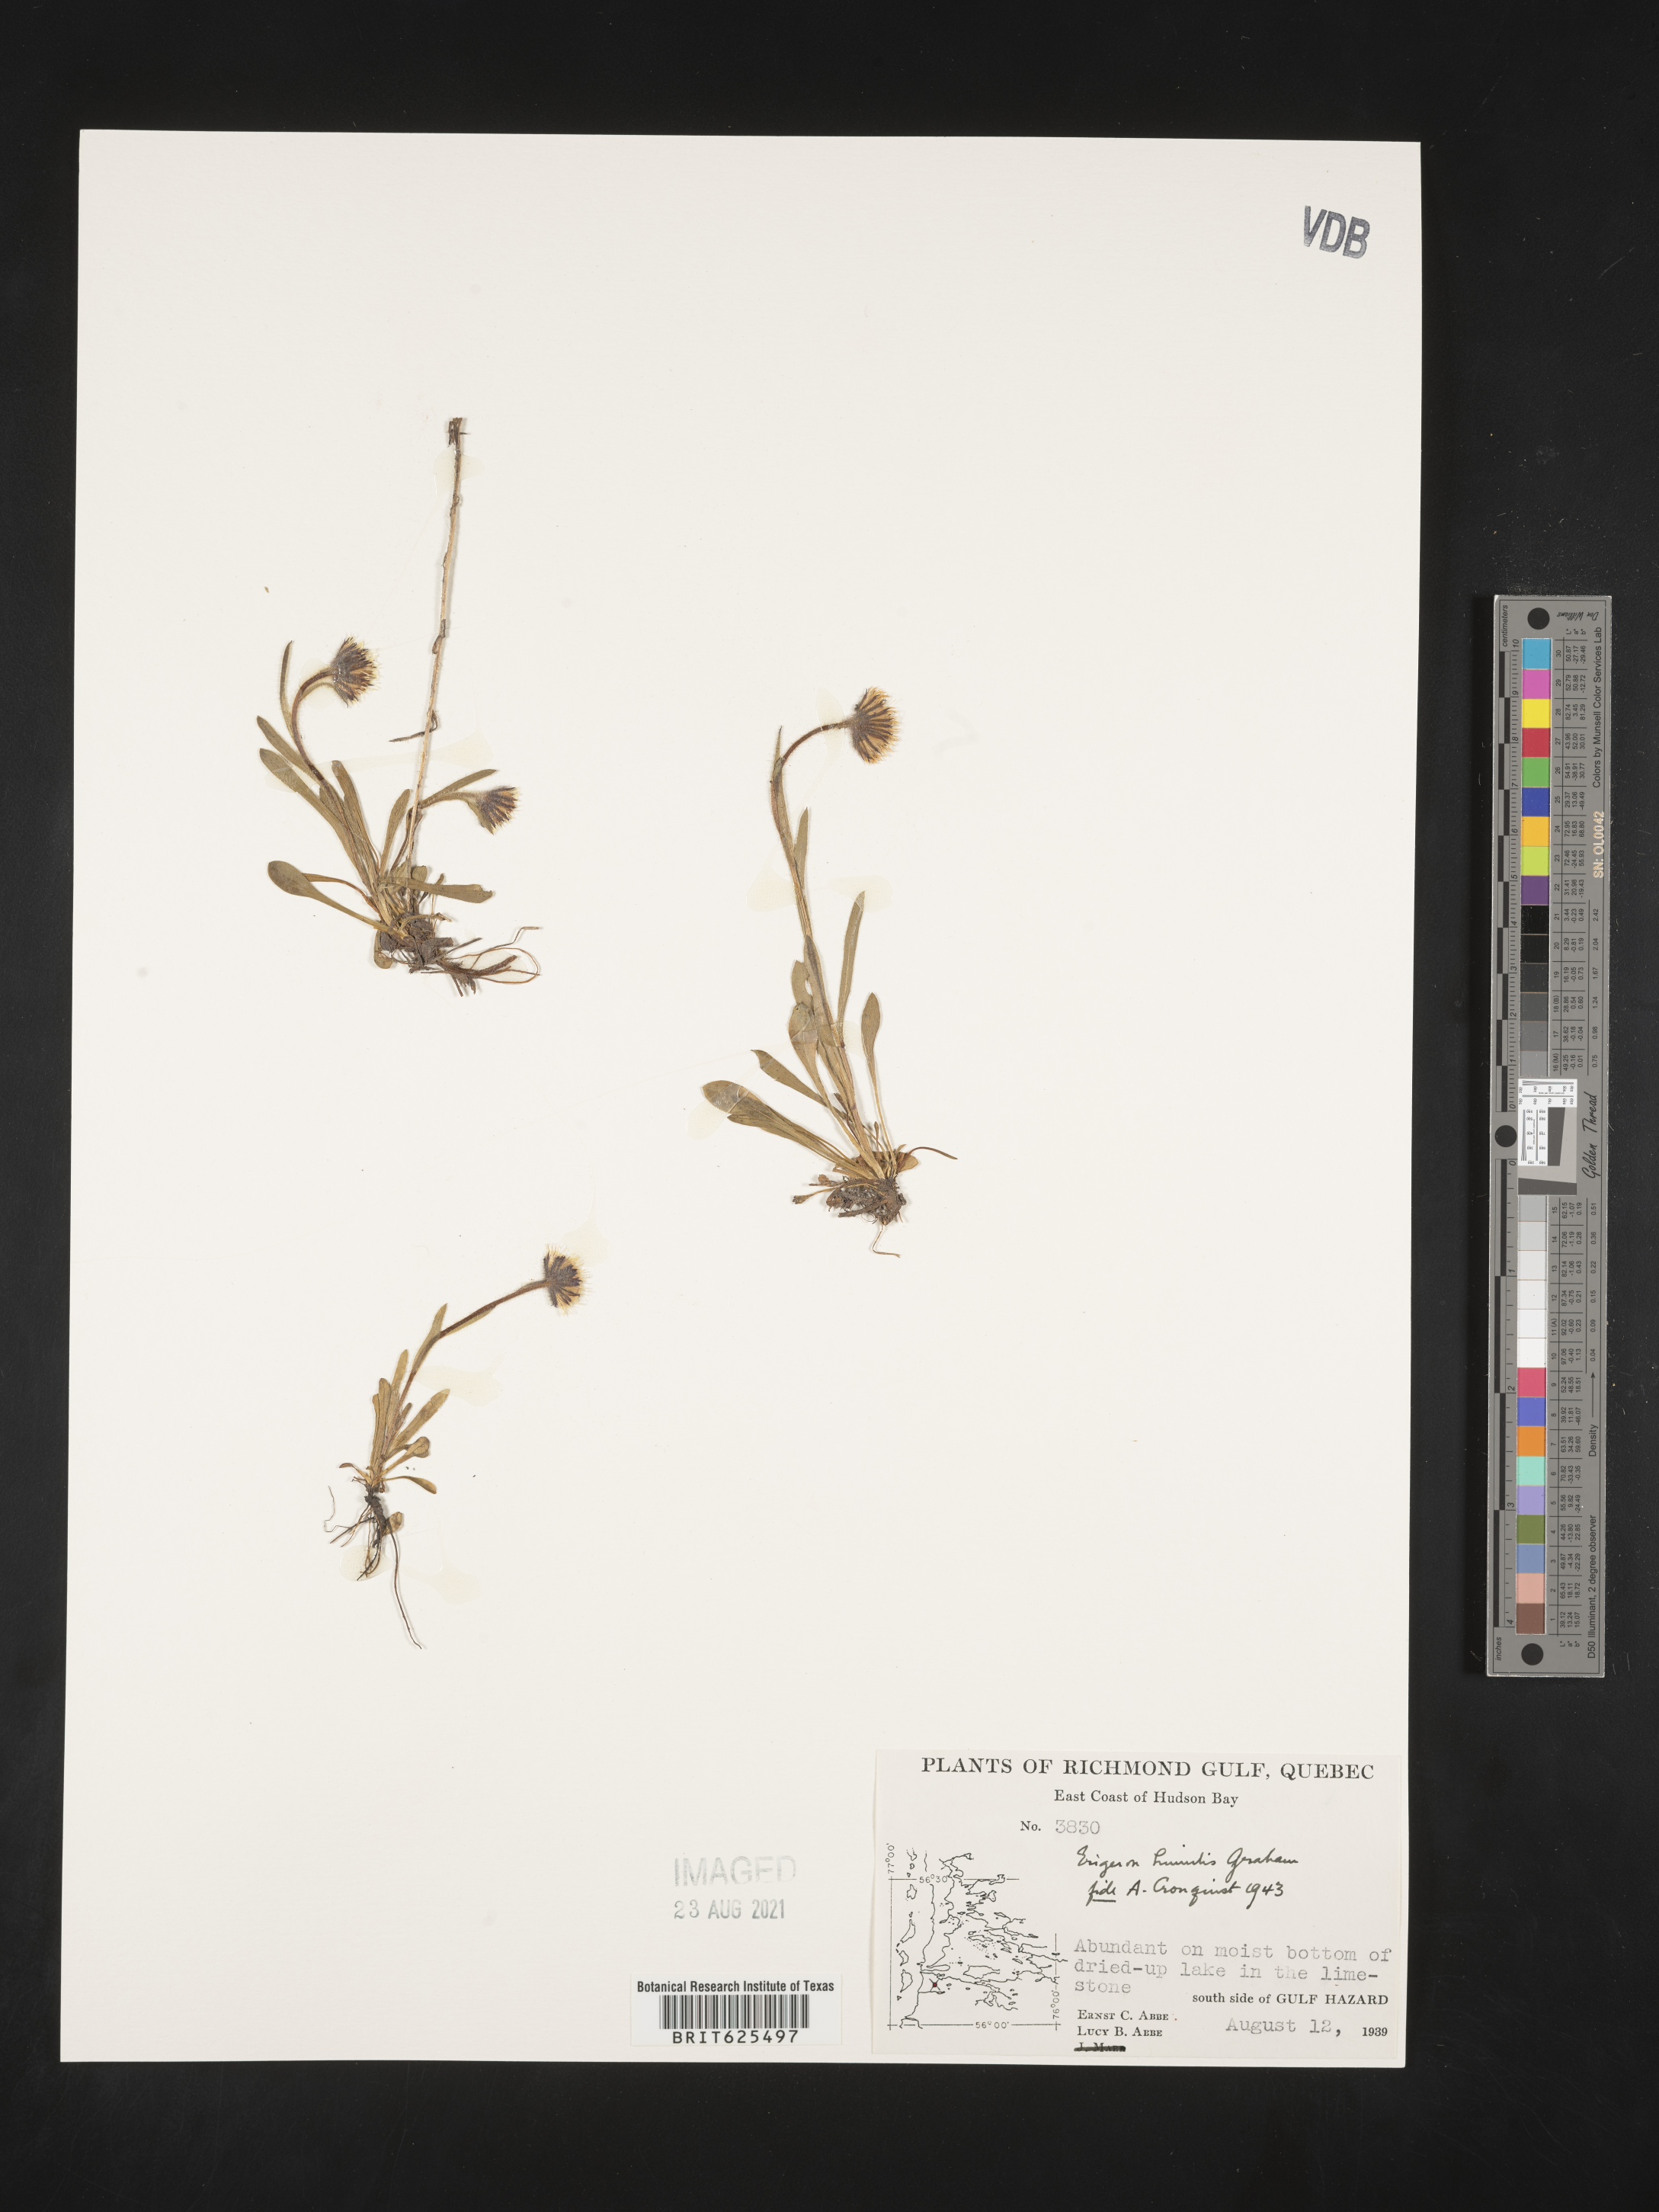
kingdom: Plantae
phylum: Tracheophyta
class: Magnoliopsida
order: Asterales
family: Asteraceae
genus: Erigeron
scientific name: Erigeron humilis
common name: Arctic-alpine fleabane
